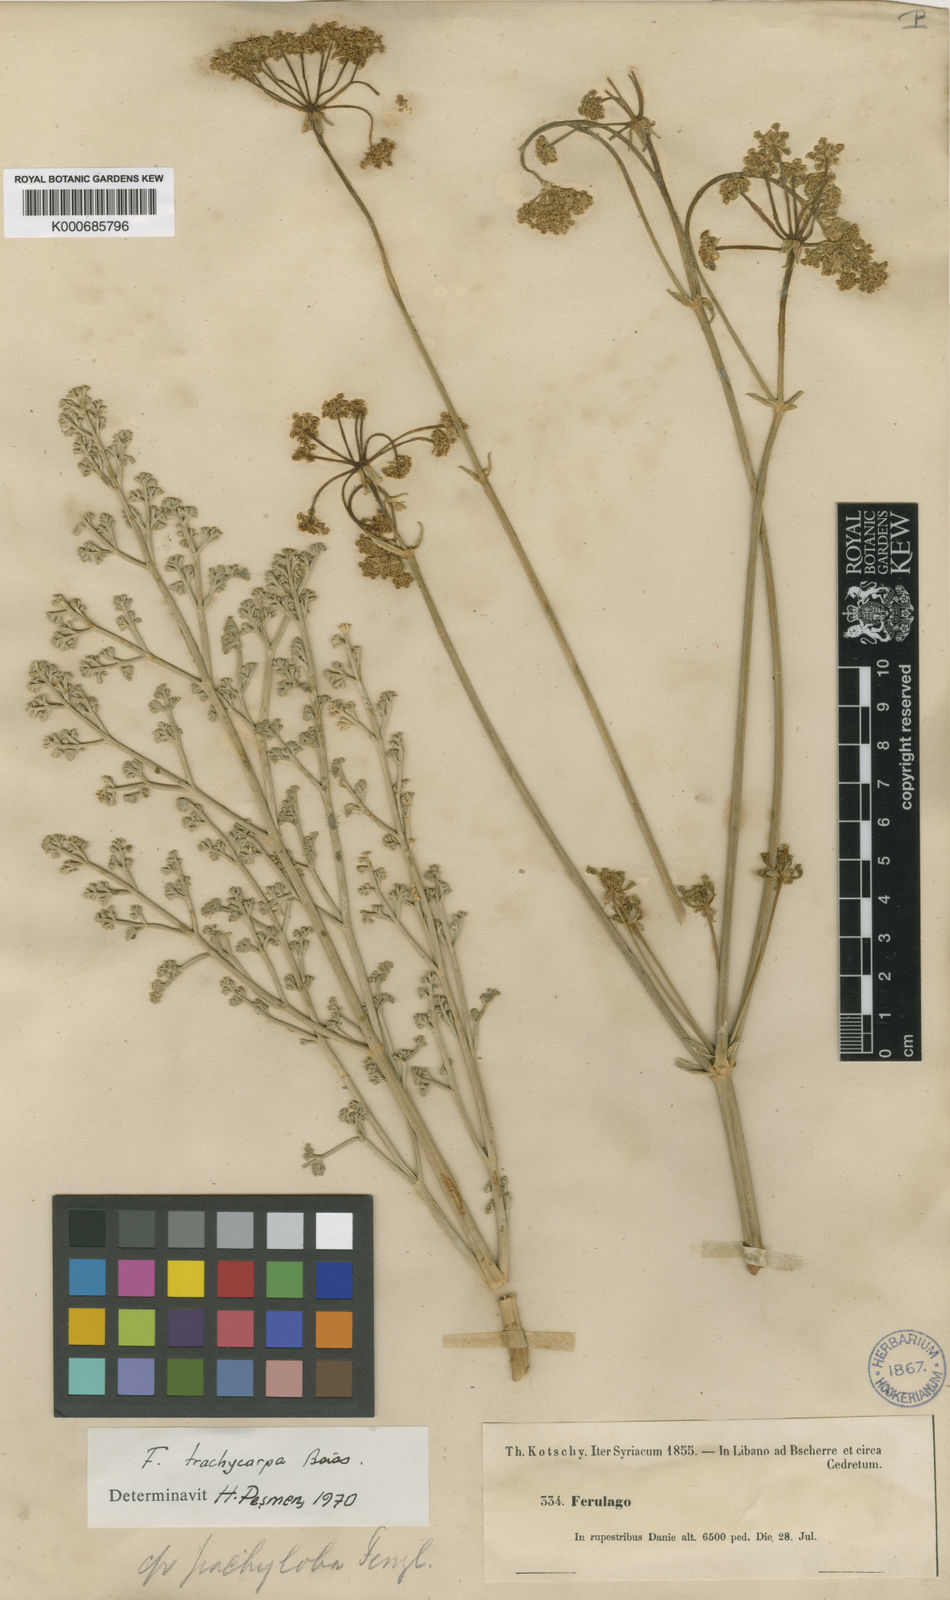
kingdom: Plantae
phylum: Tracheophyta
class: Magnoliopsida
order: Apiales
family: Apiaceae
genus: Ferulago
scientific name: Ferulago trachycarpa
